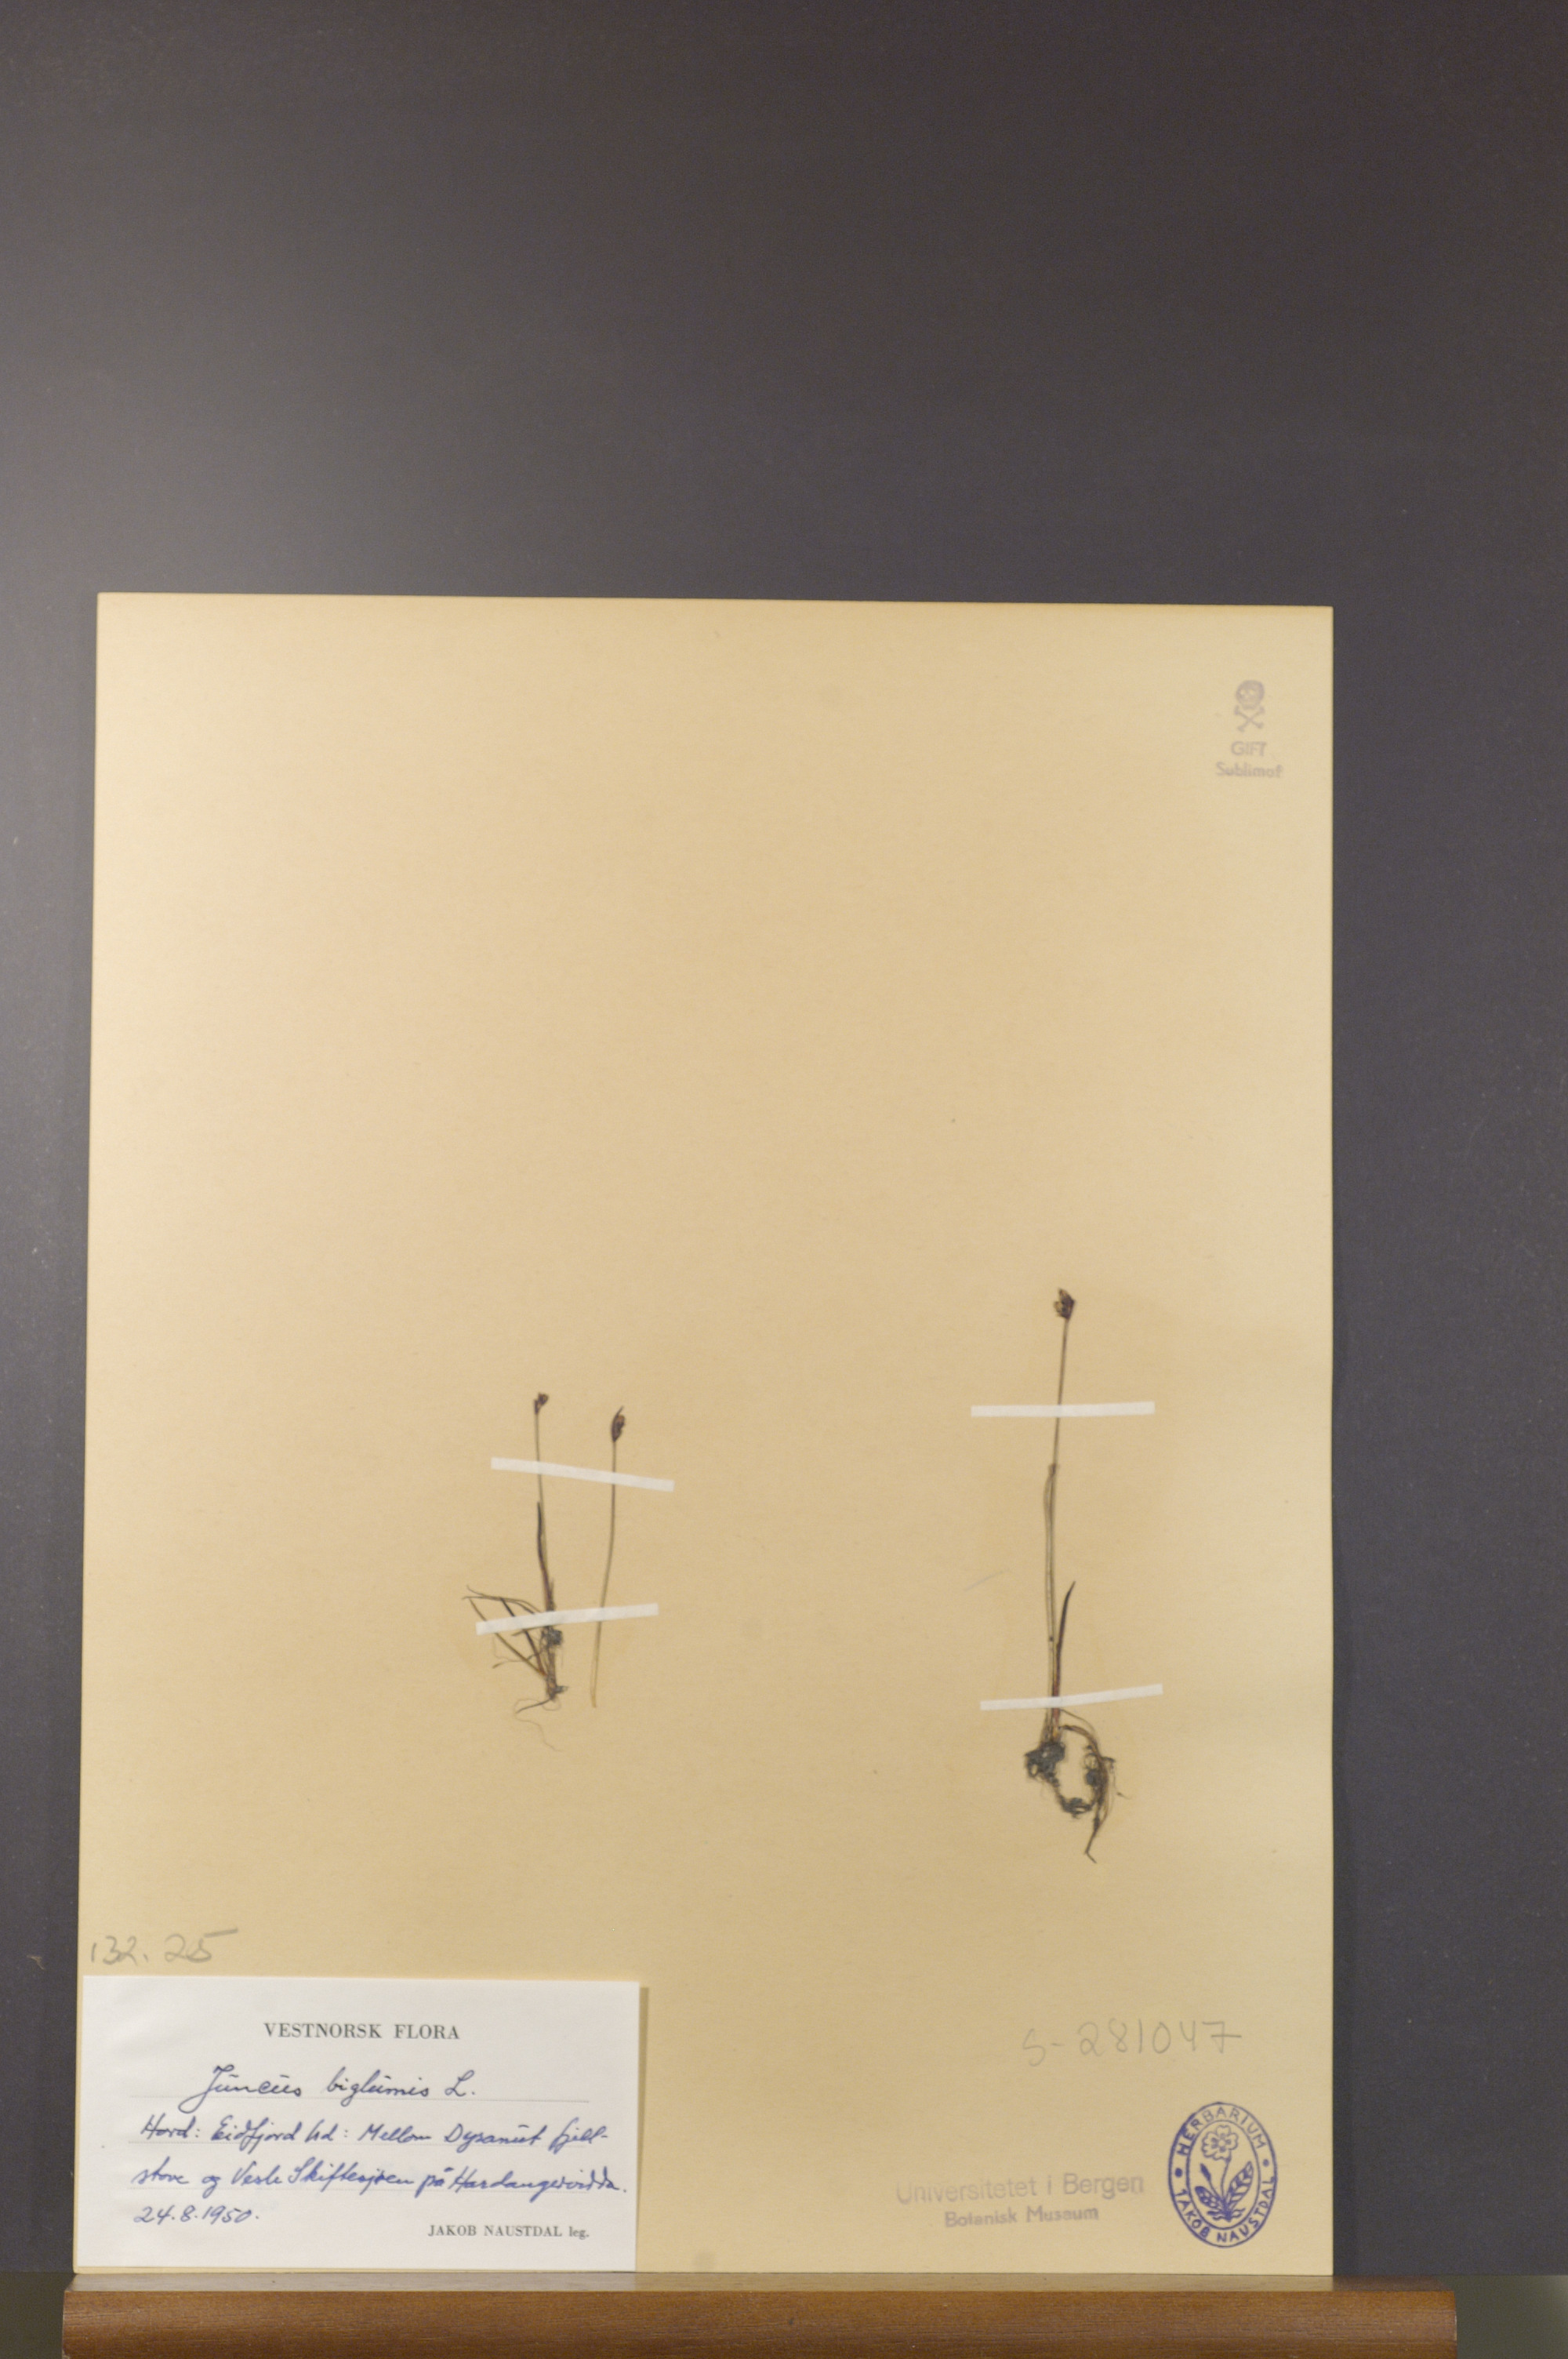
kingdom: Plantae
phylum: Tracheophyta
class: Liliopsida
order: Poales
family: Juncaceae
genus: Juncus
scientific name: Juncus biglumis
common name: Two-flowered rush
